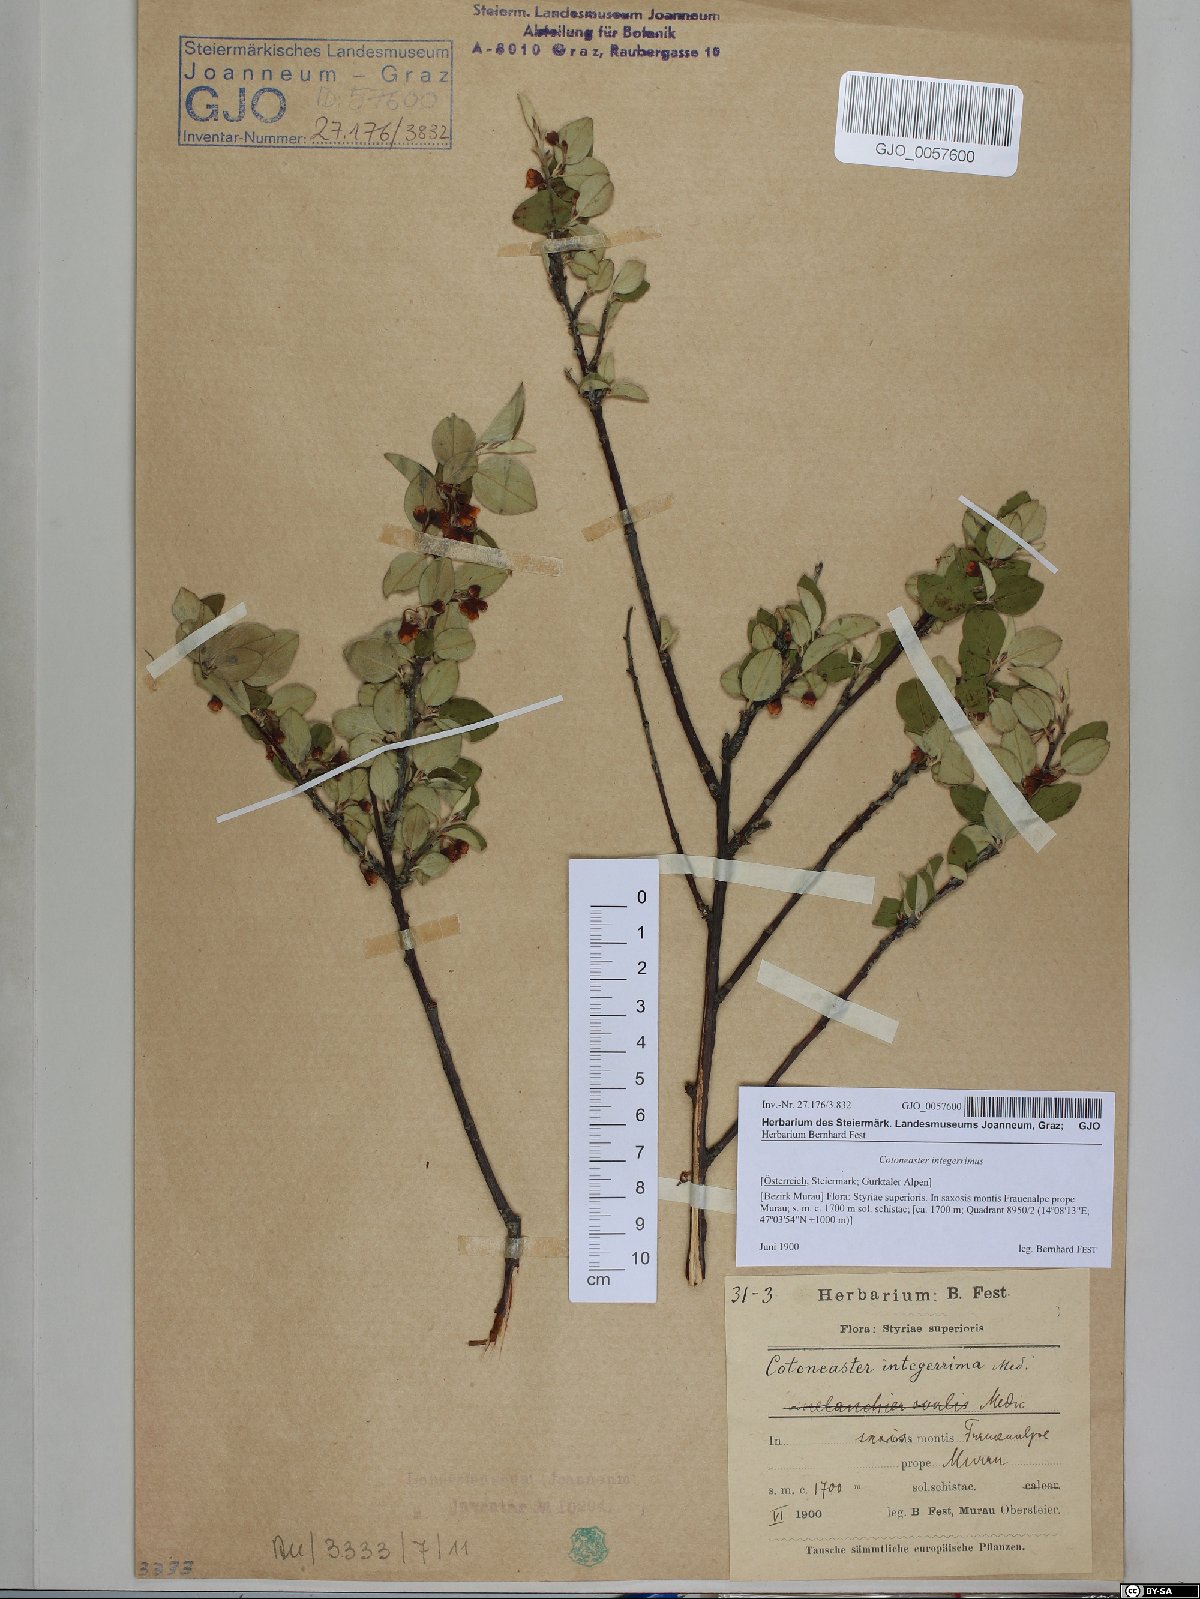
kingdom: Plantae
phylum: Tracheophyta
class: Magnoliopsida
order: Rosales
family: Rosaceae
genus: Cotoneaster
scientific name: Cotoneaster integerrimus
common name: Wild cotoneaster
